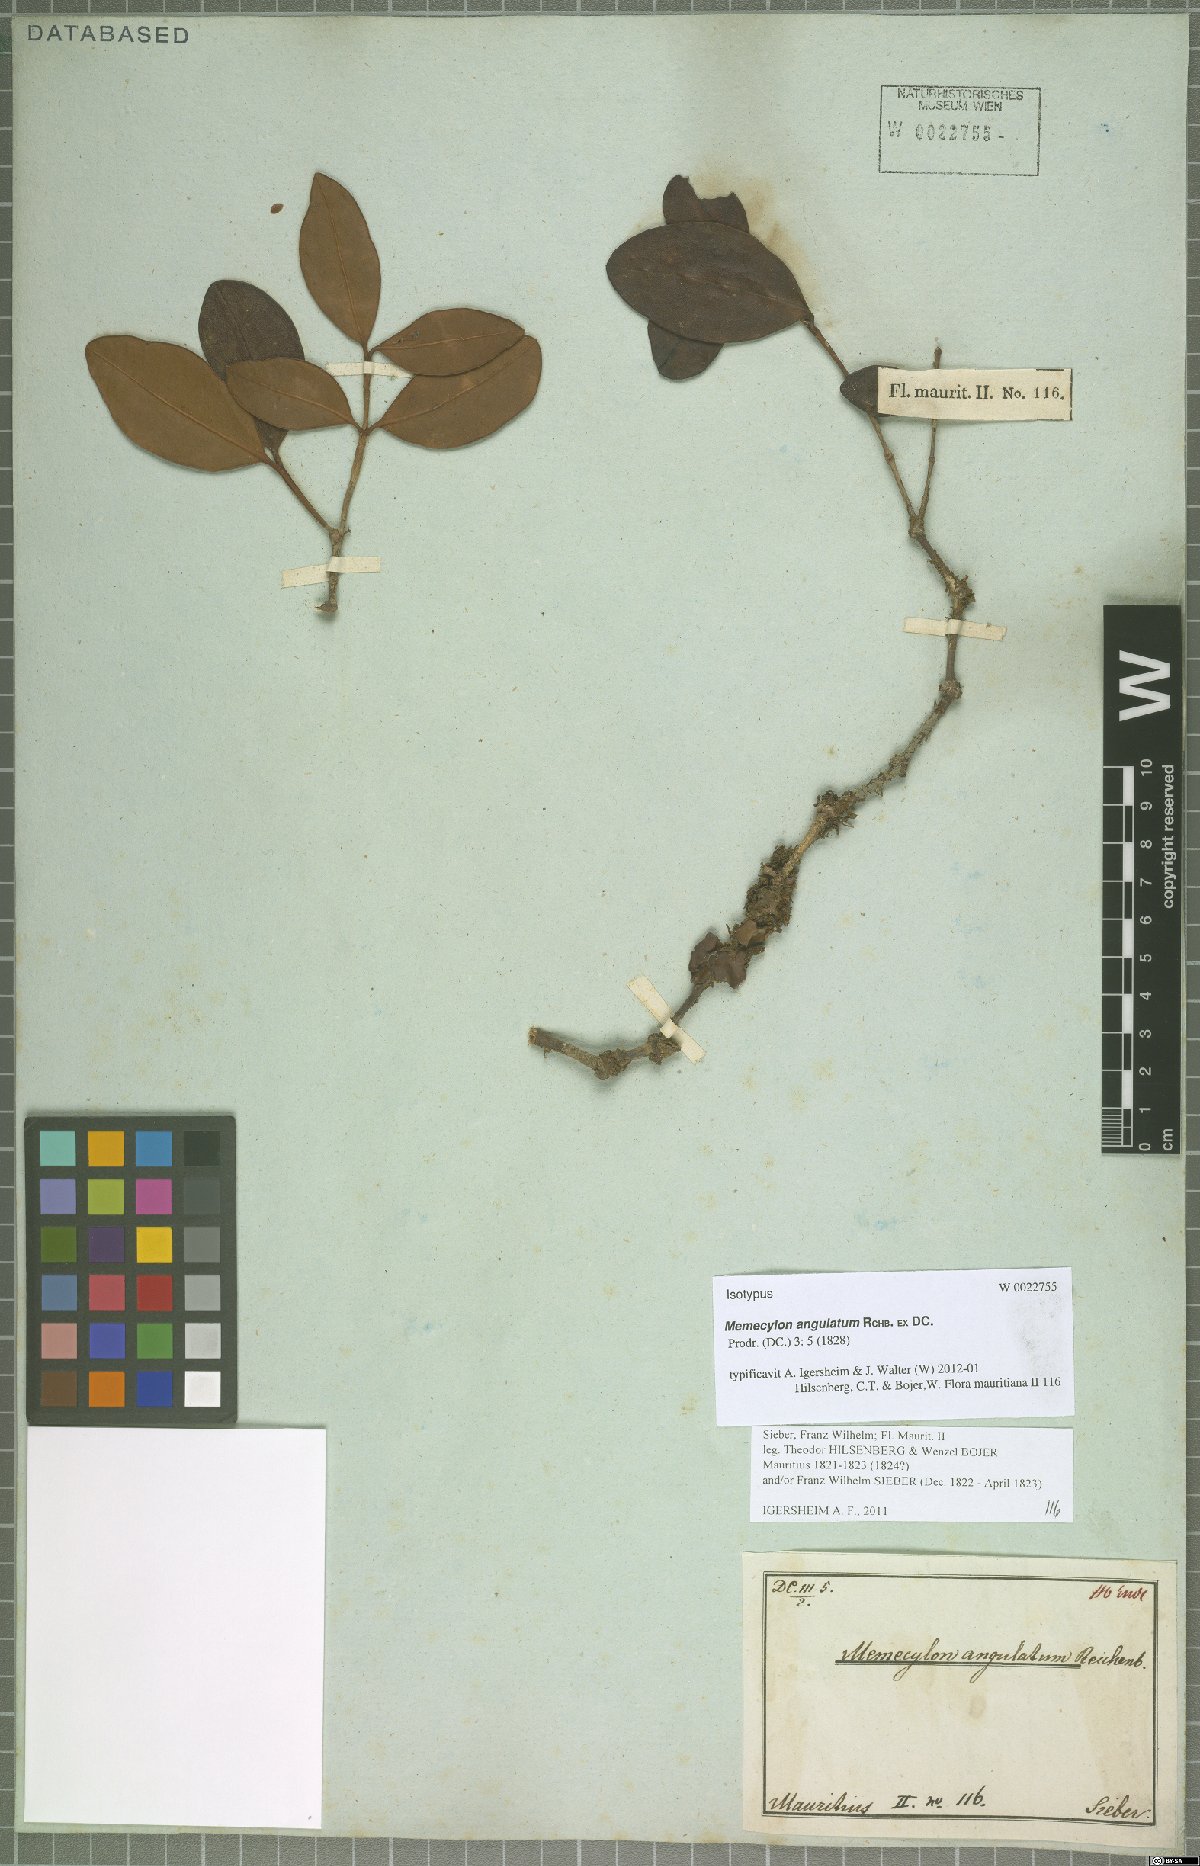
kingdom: Plantae
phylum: Tracheophyta
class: Magnoliopsida
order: Myrtales
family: Melastomataceae
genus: Memecylon
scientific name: Memecylon ovatifolium
